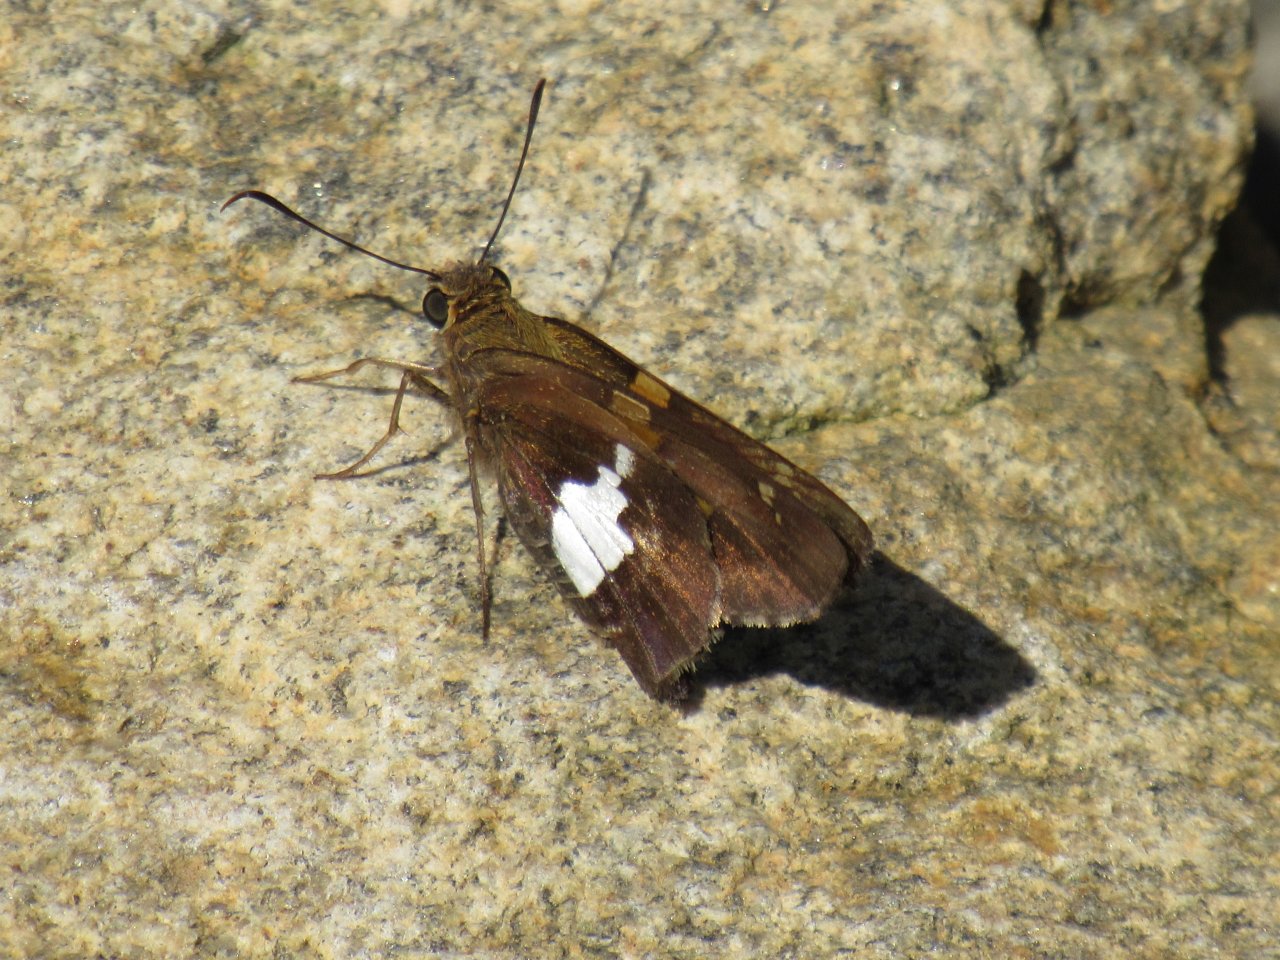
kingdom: Animalia
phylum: Arthropoda
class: Insecta
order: Lepidoptera
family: Hesperiidae
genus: Epargyreus
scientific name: Epargyreus clarus
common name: Silver-spotted Skipper
